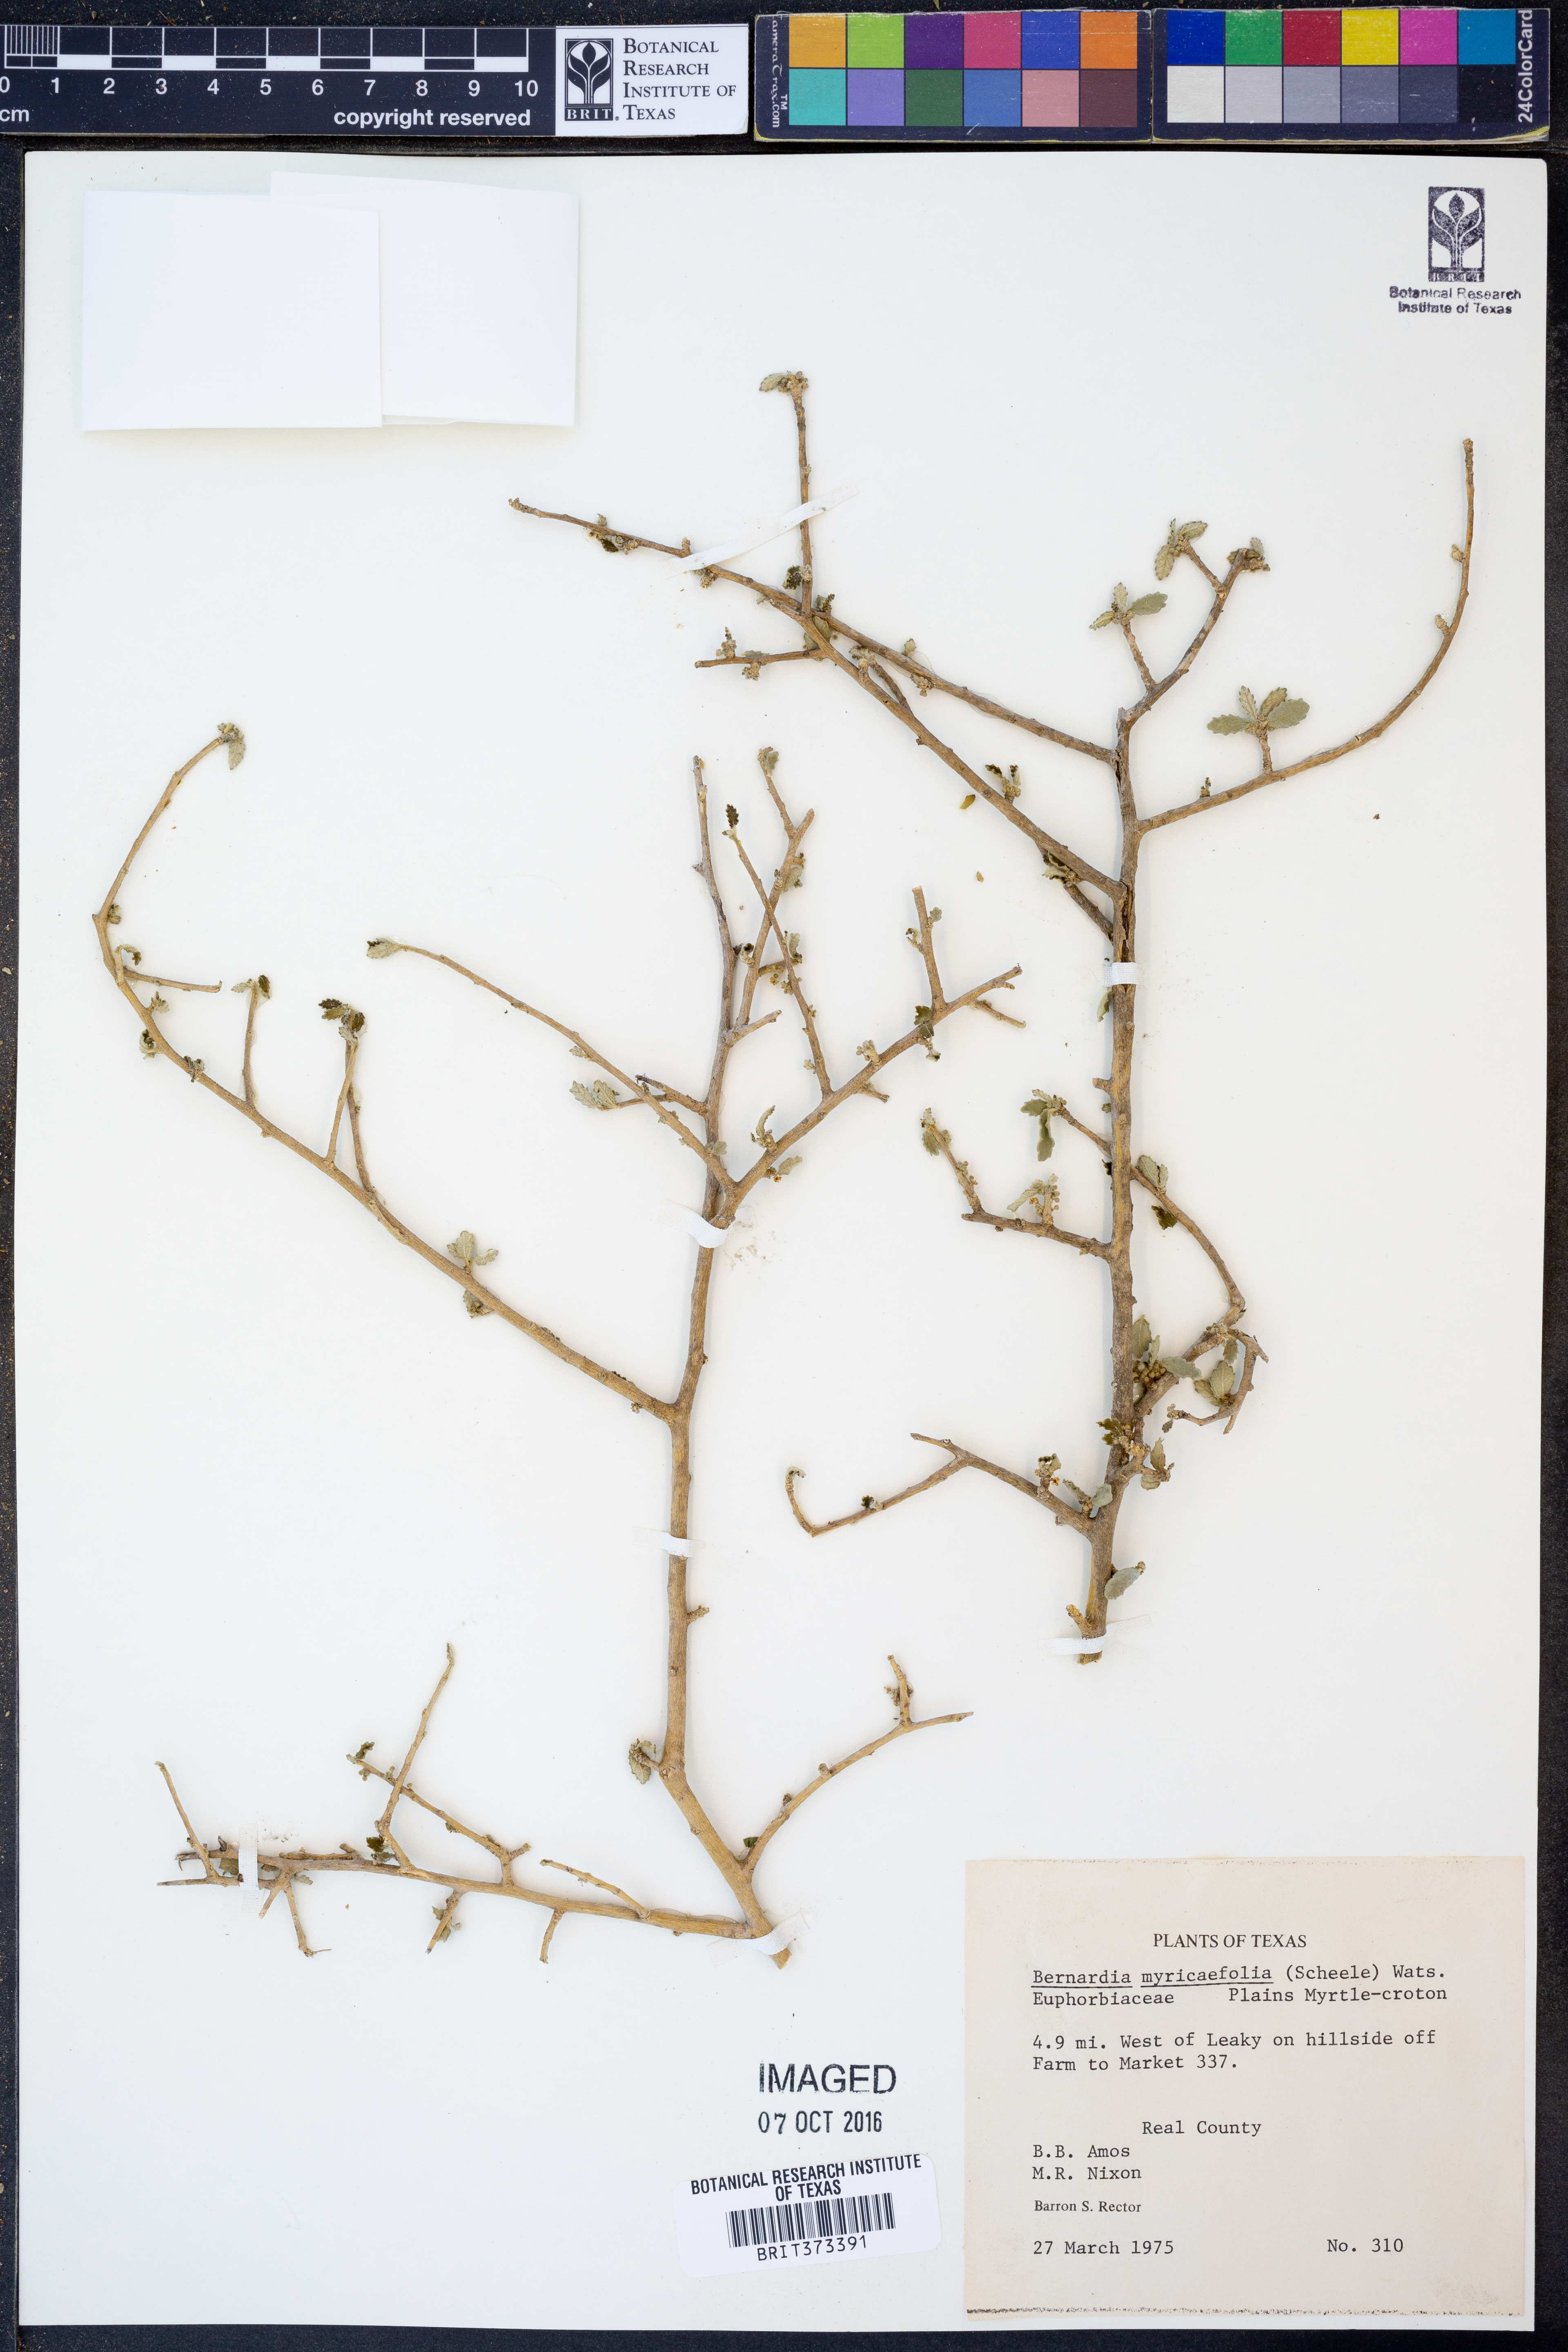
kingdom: Plantae
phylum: Tracheophyta
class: Magnoliopsida
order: Malpighiales
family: Euphorbiaceae
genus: Bernardia
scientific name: Bernardia myricifolia
